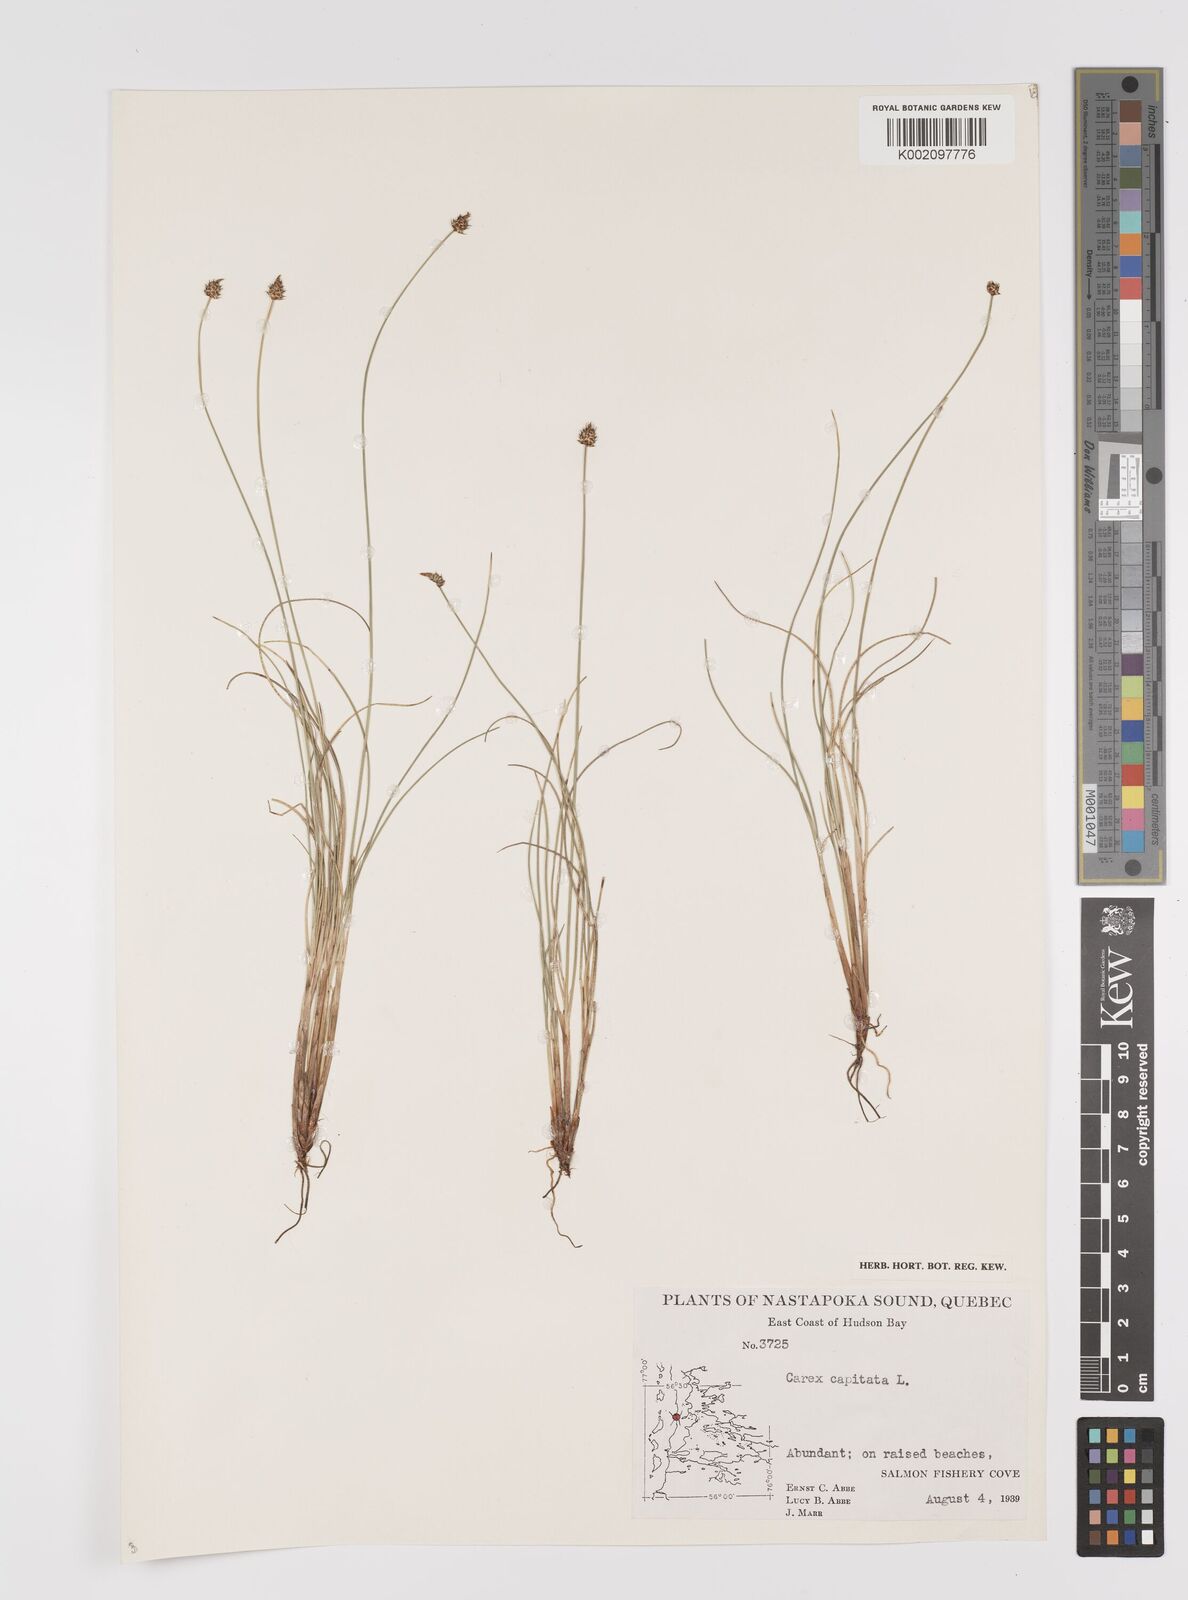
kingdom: Plantae
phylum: Tracheophyta
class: Liliopsida
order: Poales
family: Cyperaceae
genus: Carex
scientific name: Carex capitata
